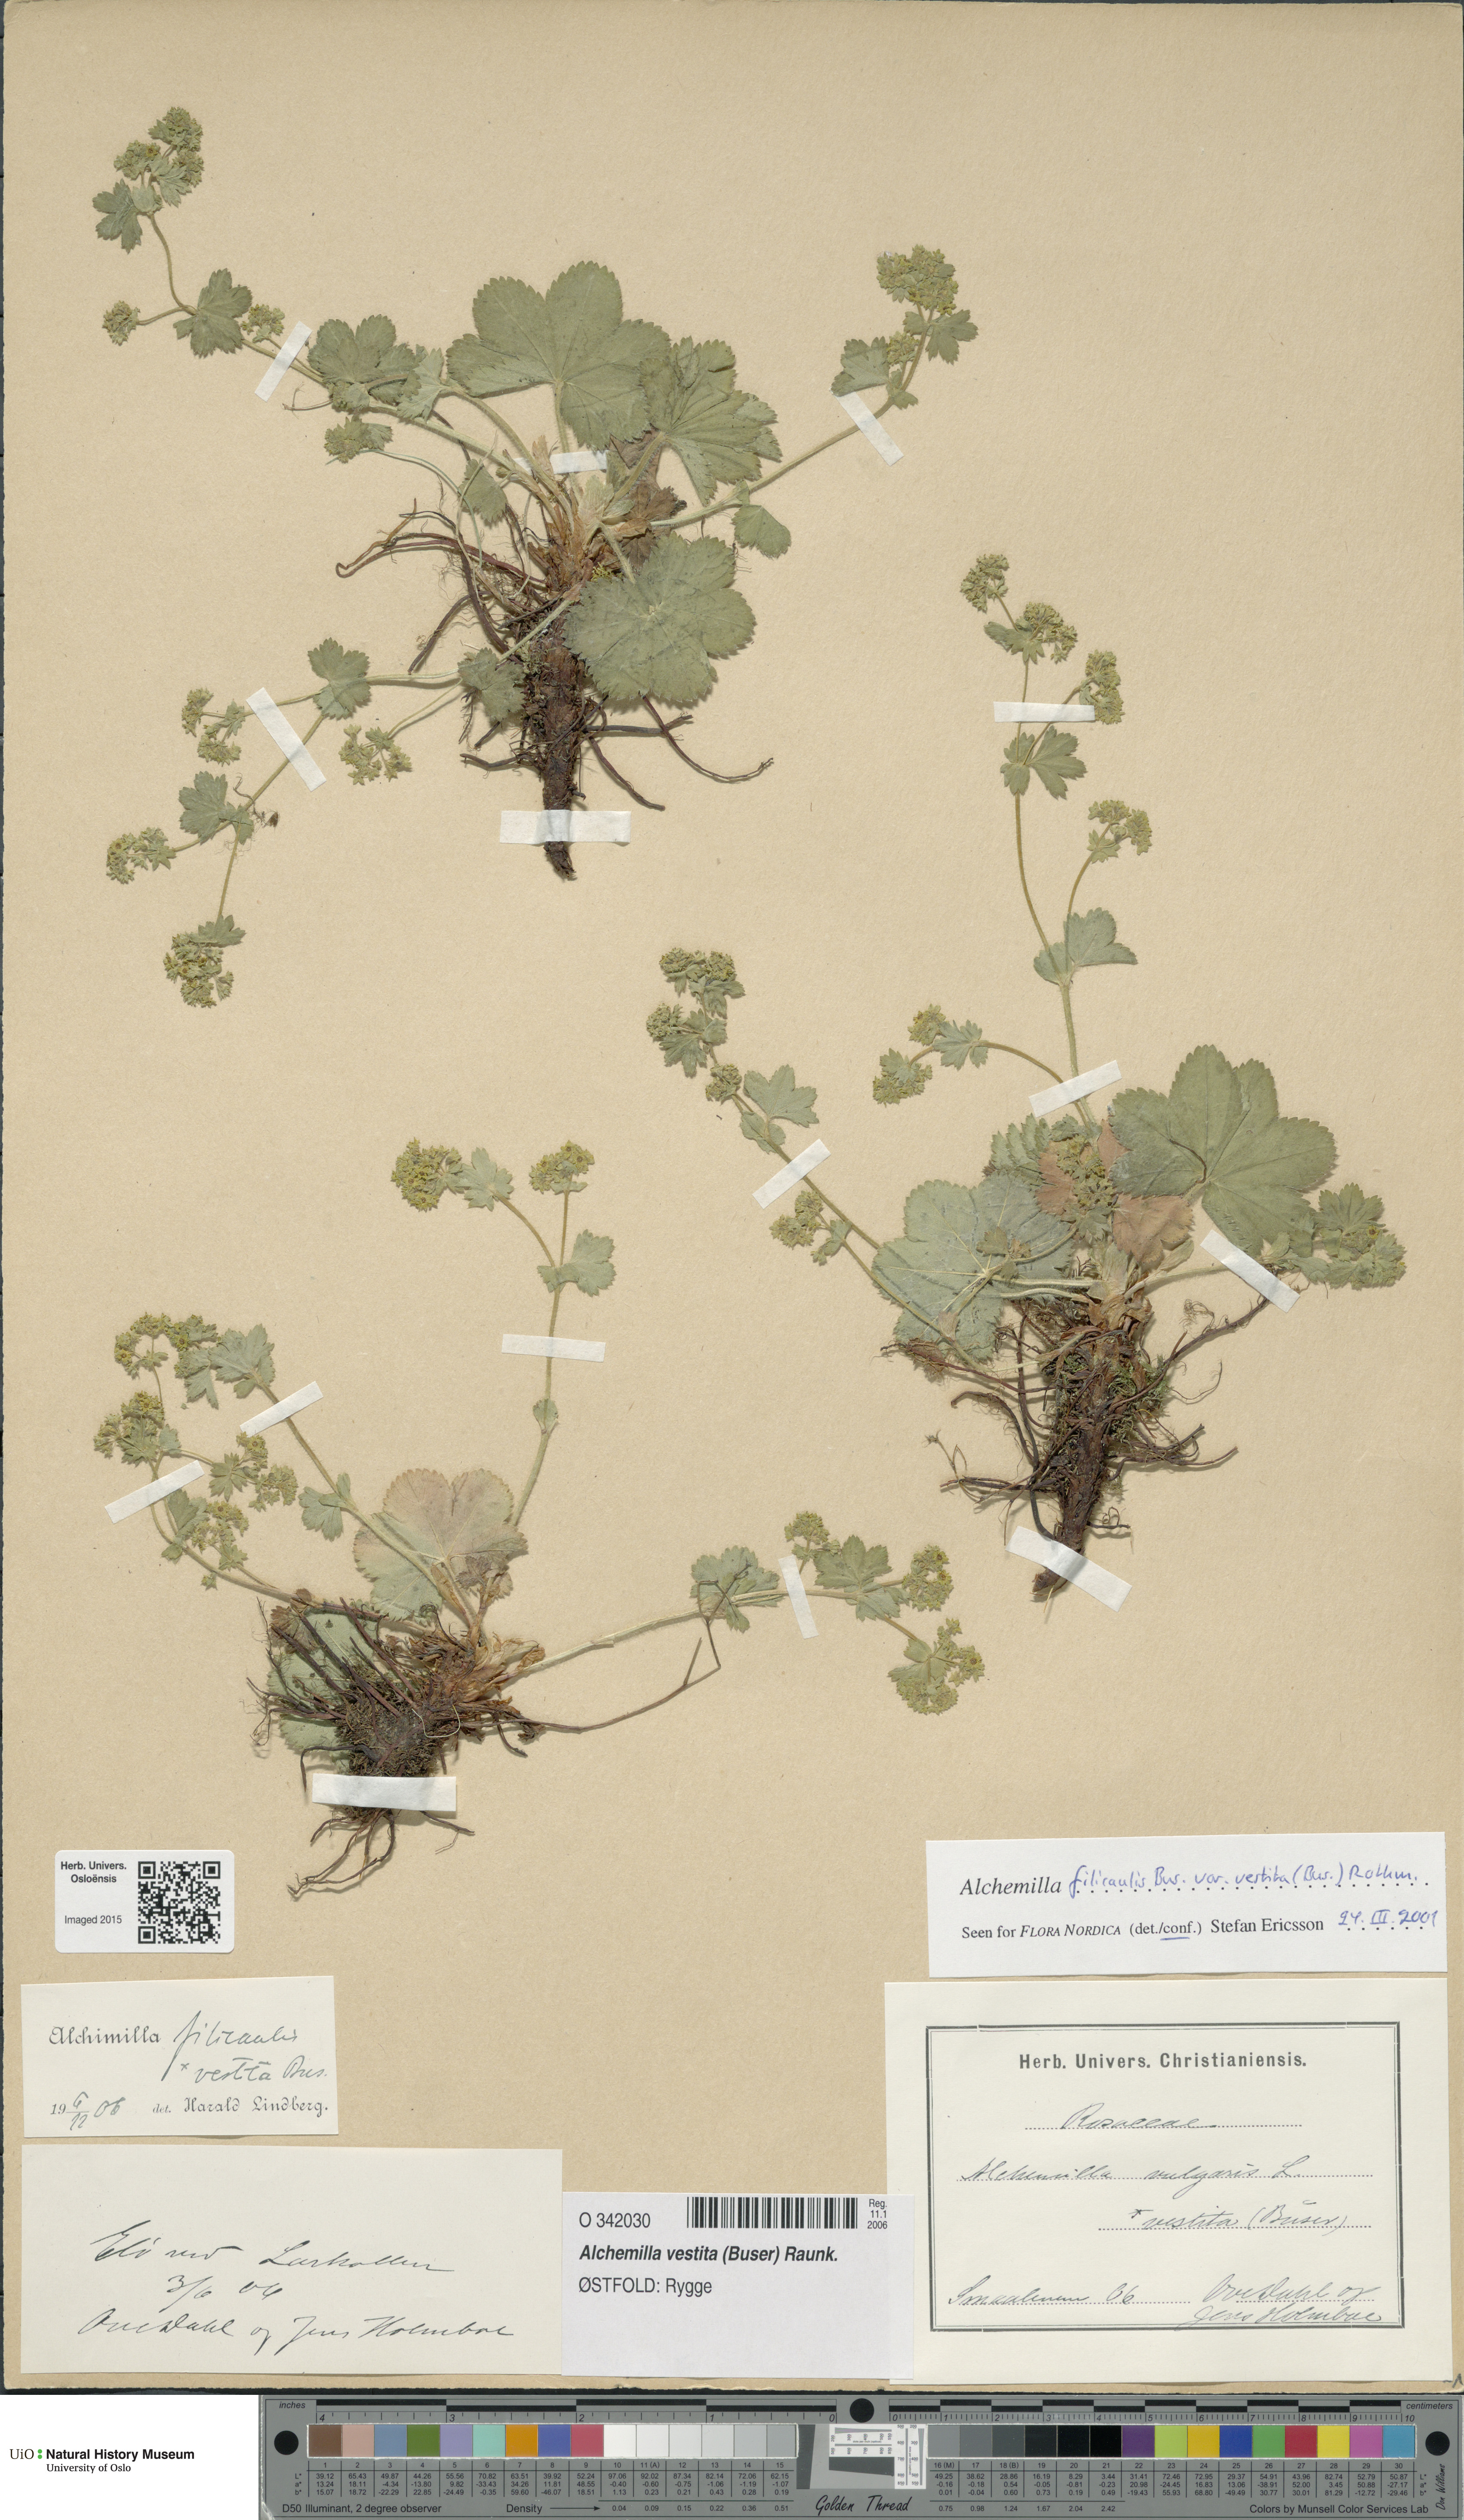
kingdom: Plantae
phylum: Tracheophyta
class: Magnoliopsida
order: Rosales
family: Rosaceae
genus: Alchemilla
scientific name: Alchemilla filicaulis
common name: Hairy lady's-mantle
